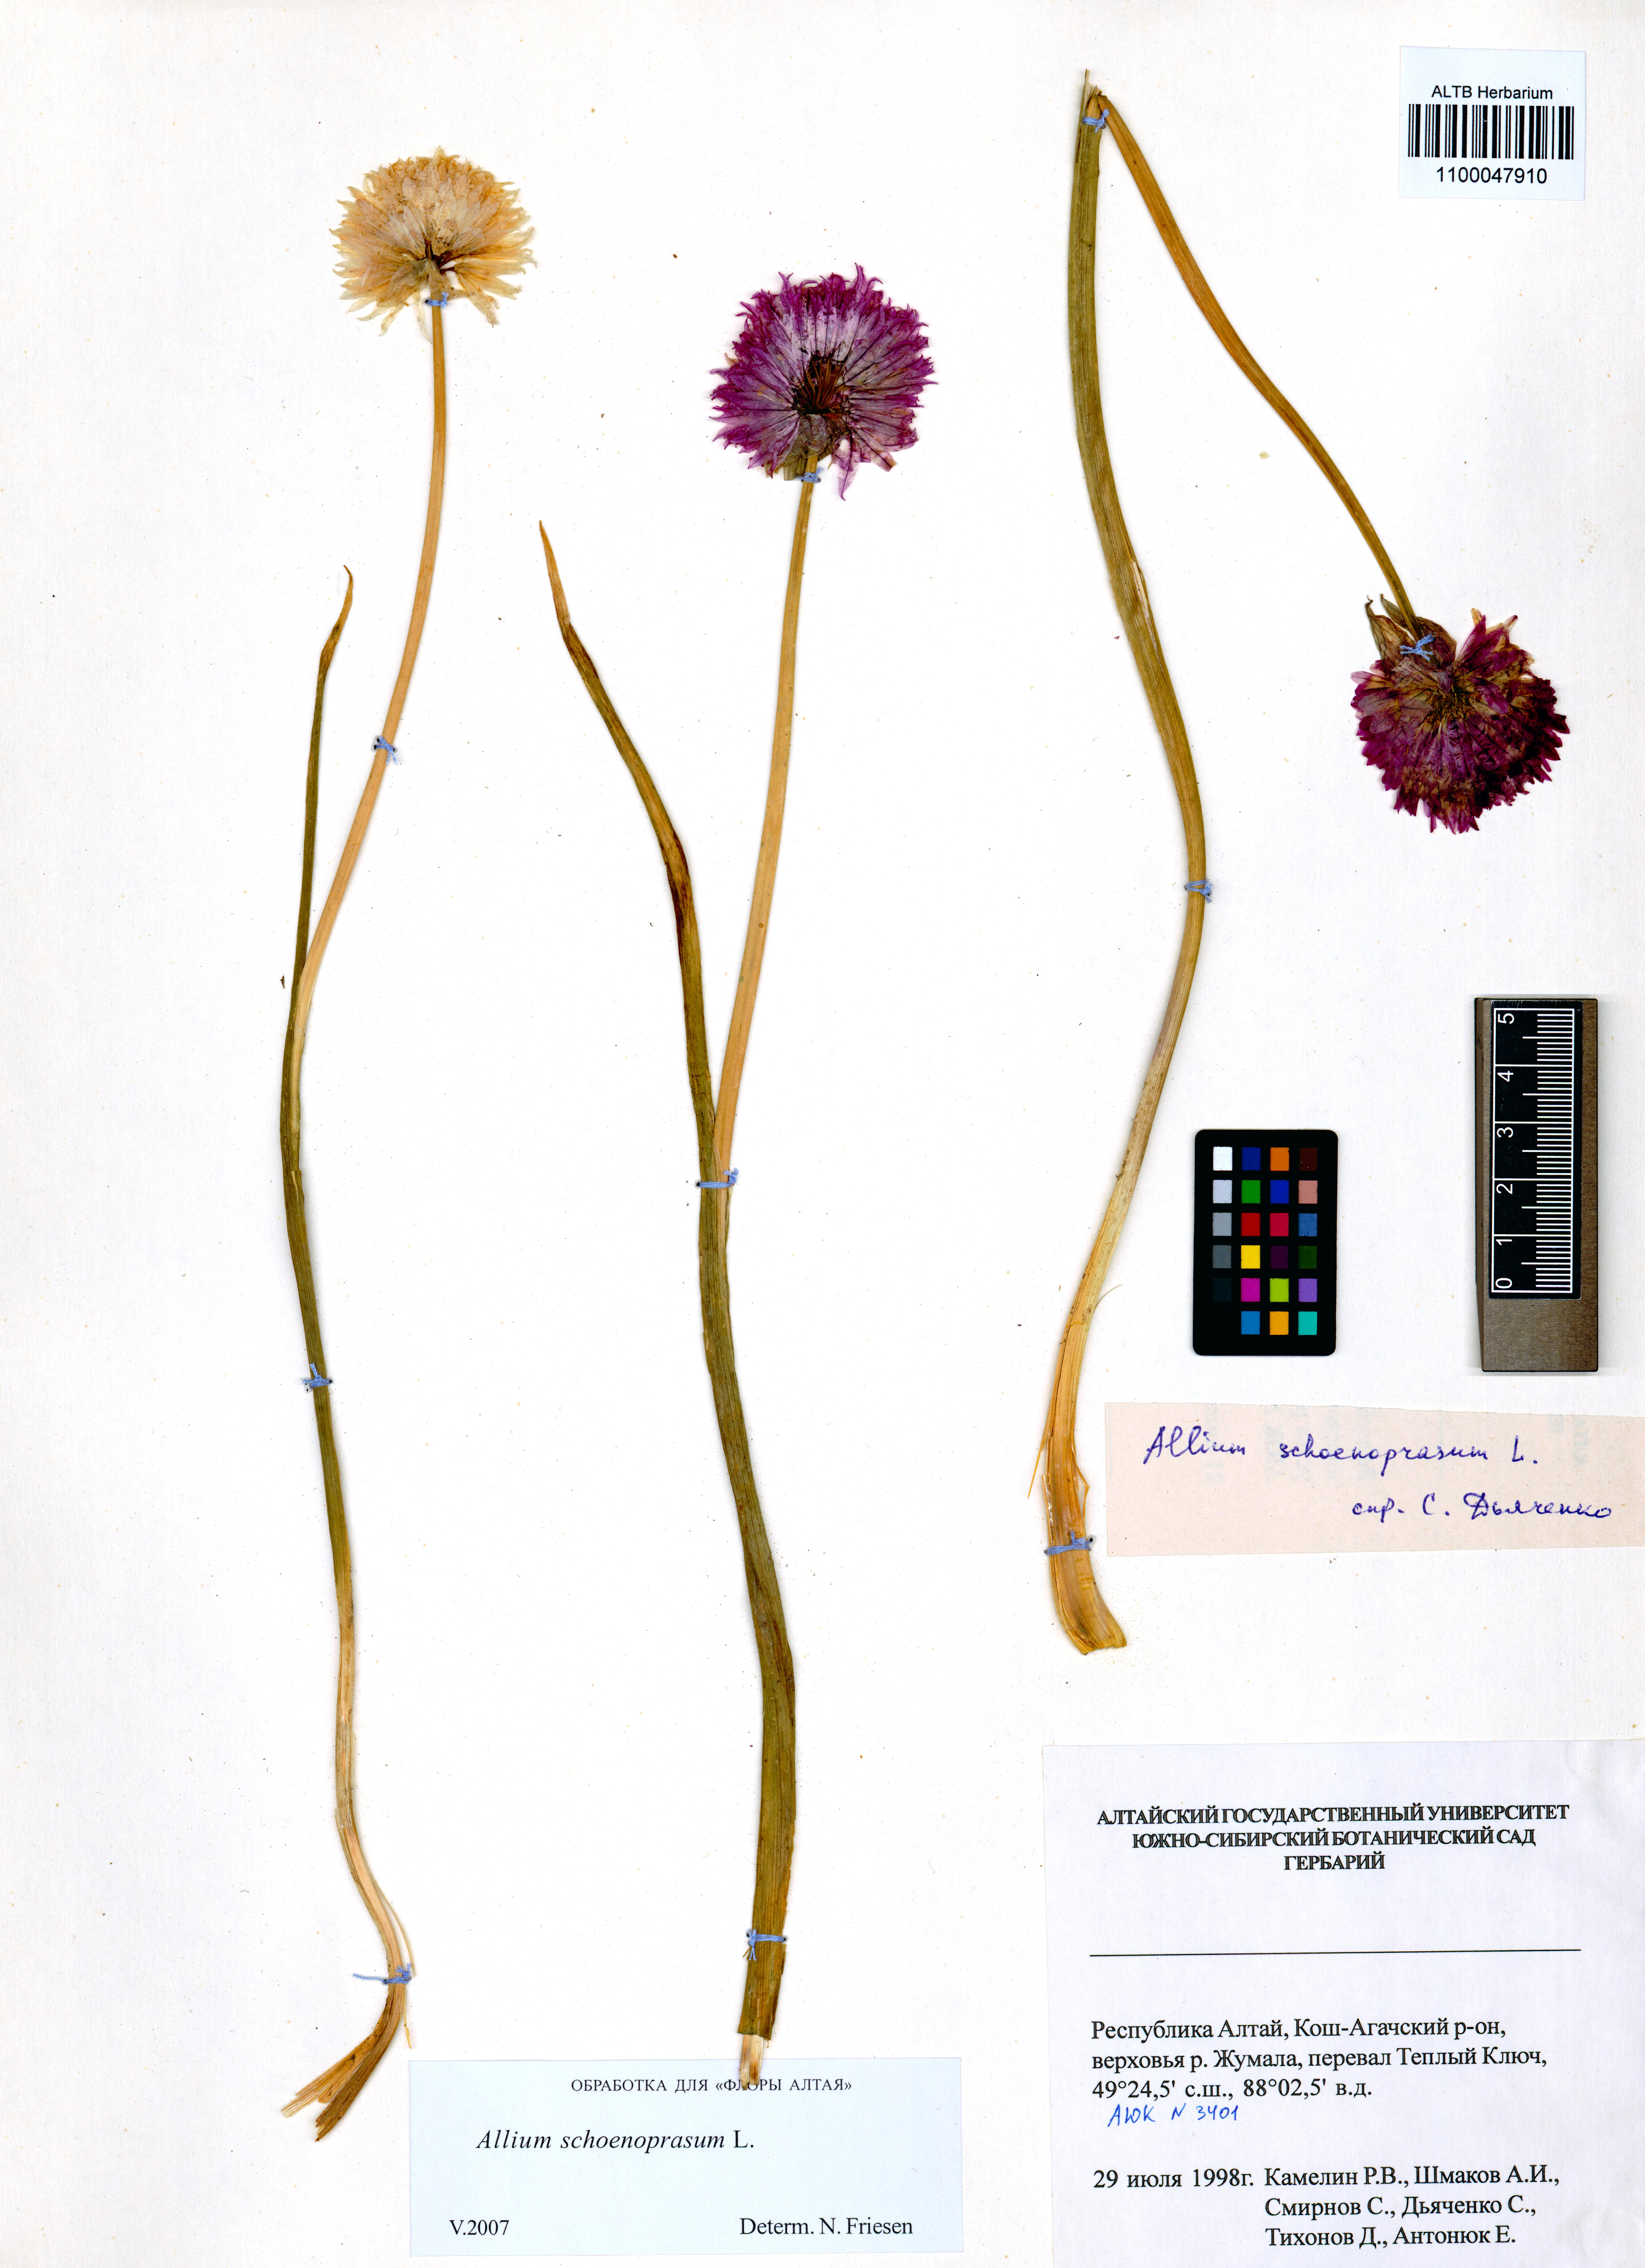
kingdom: Plantae
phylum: Tracheophyta
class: Liliopsida
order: Asparagales
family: Amaryllidaceae
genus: Allium
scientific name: Allium schoenoprasum
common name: Chives
